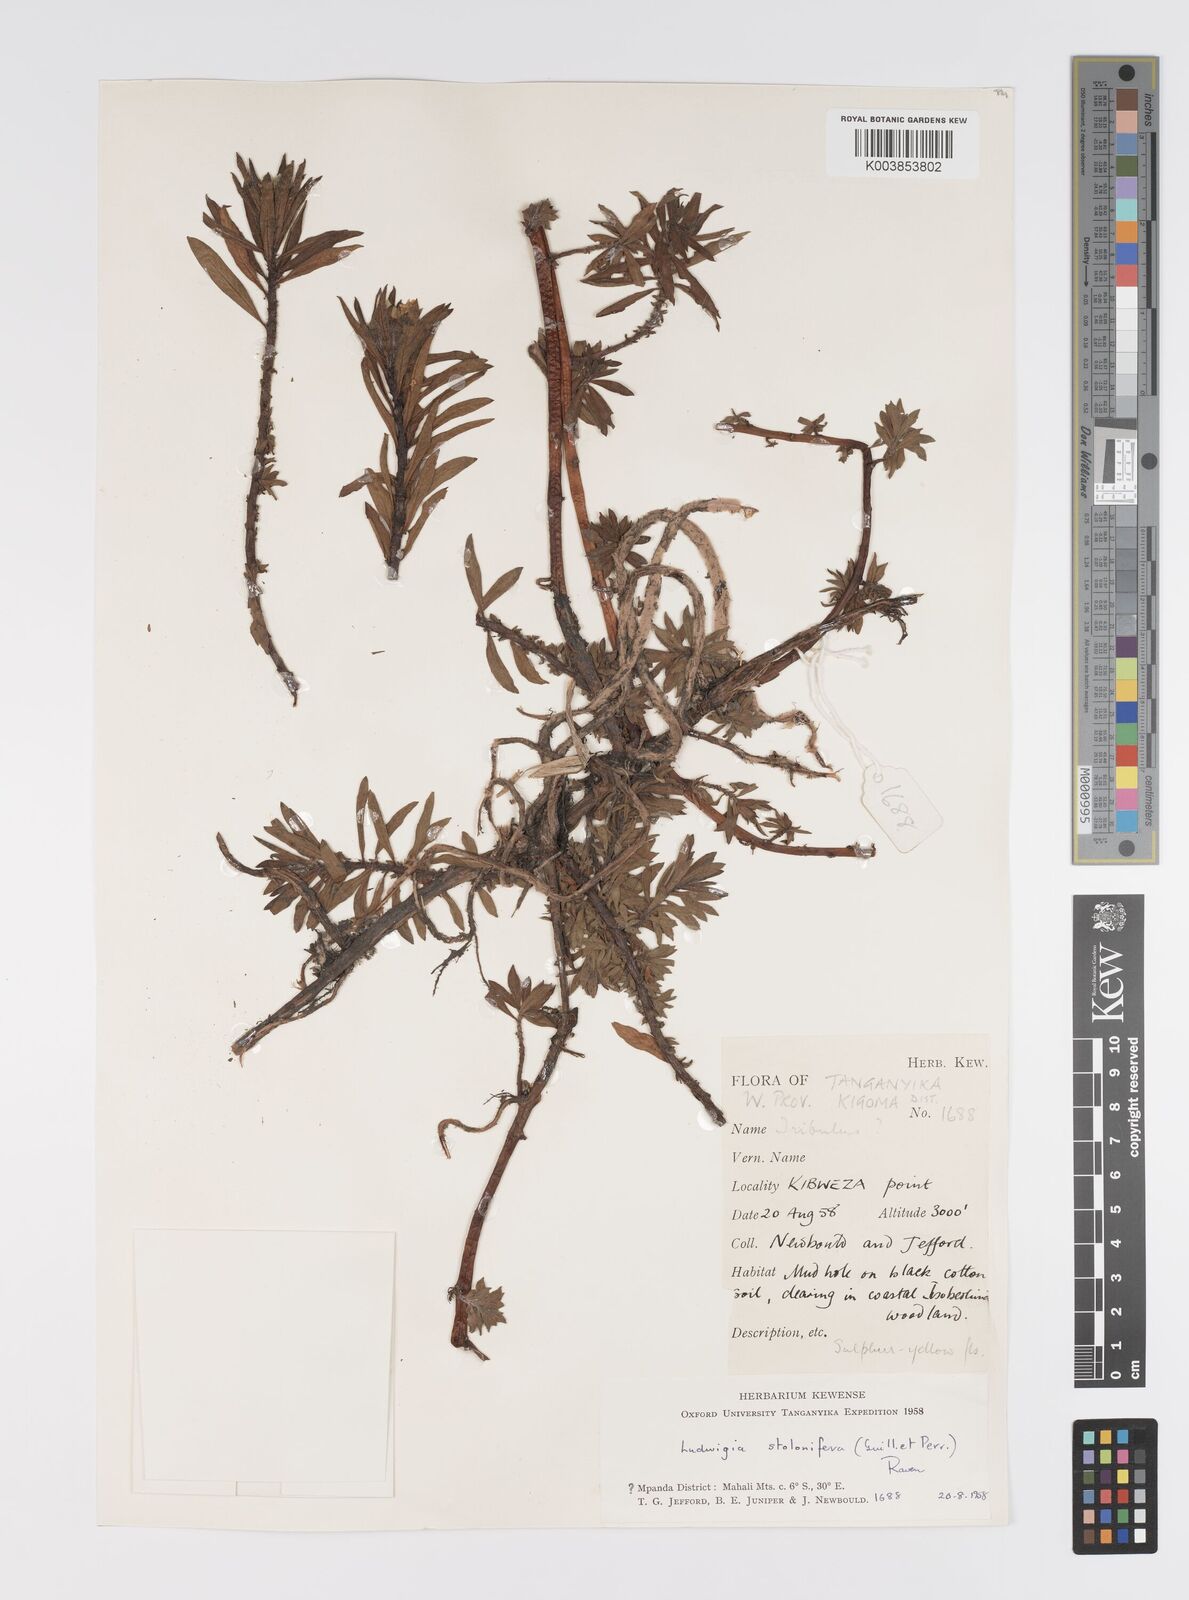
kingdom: Plantae
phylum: Tracheophyta
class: Magnoliopsida
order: Myrtales
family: Onagraceae
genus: Ludwigia
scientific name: Ludwigia adscendens
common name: Creeping water primrose
